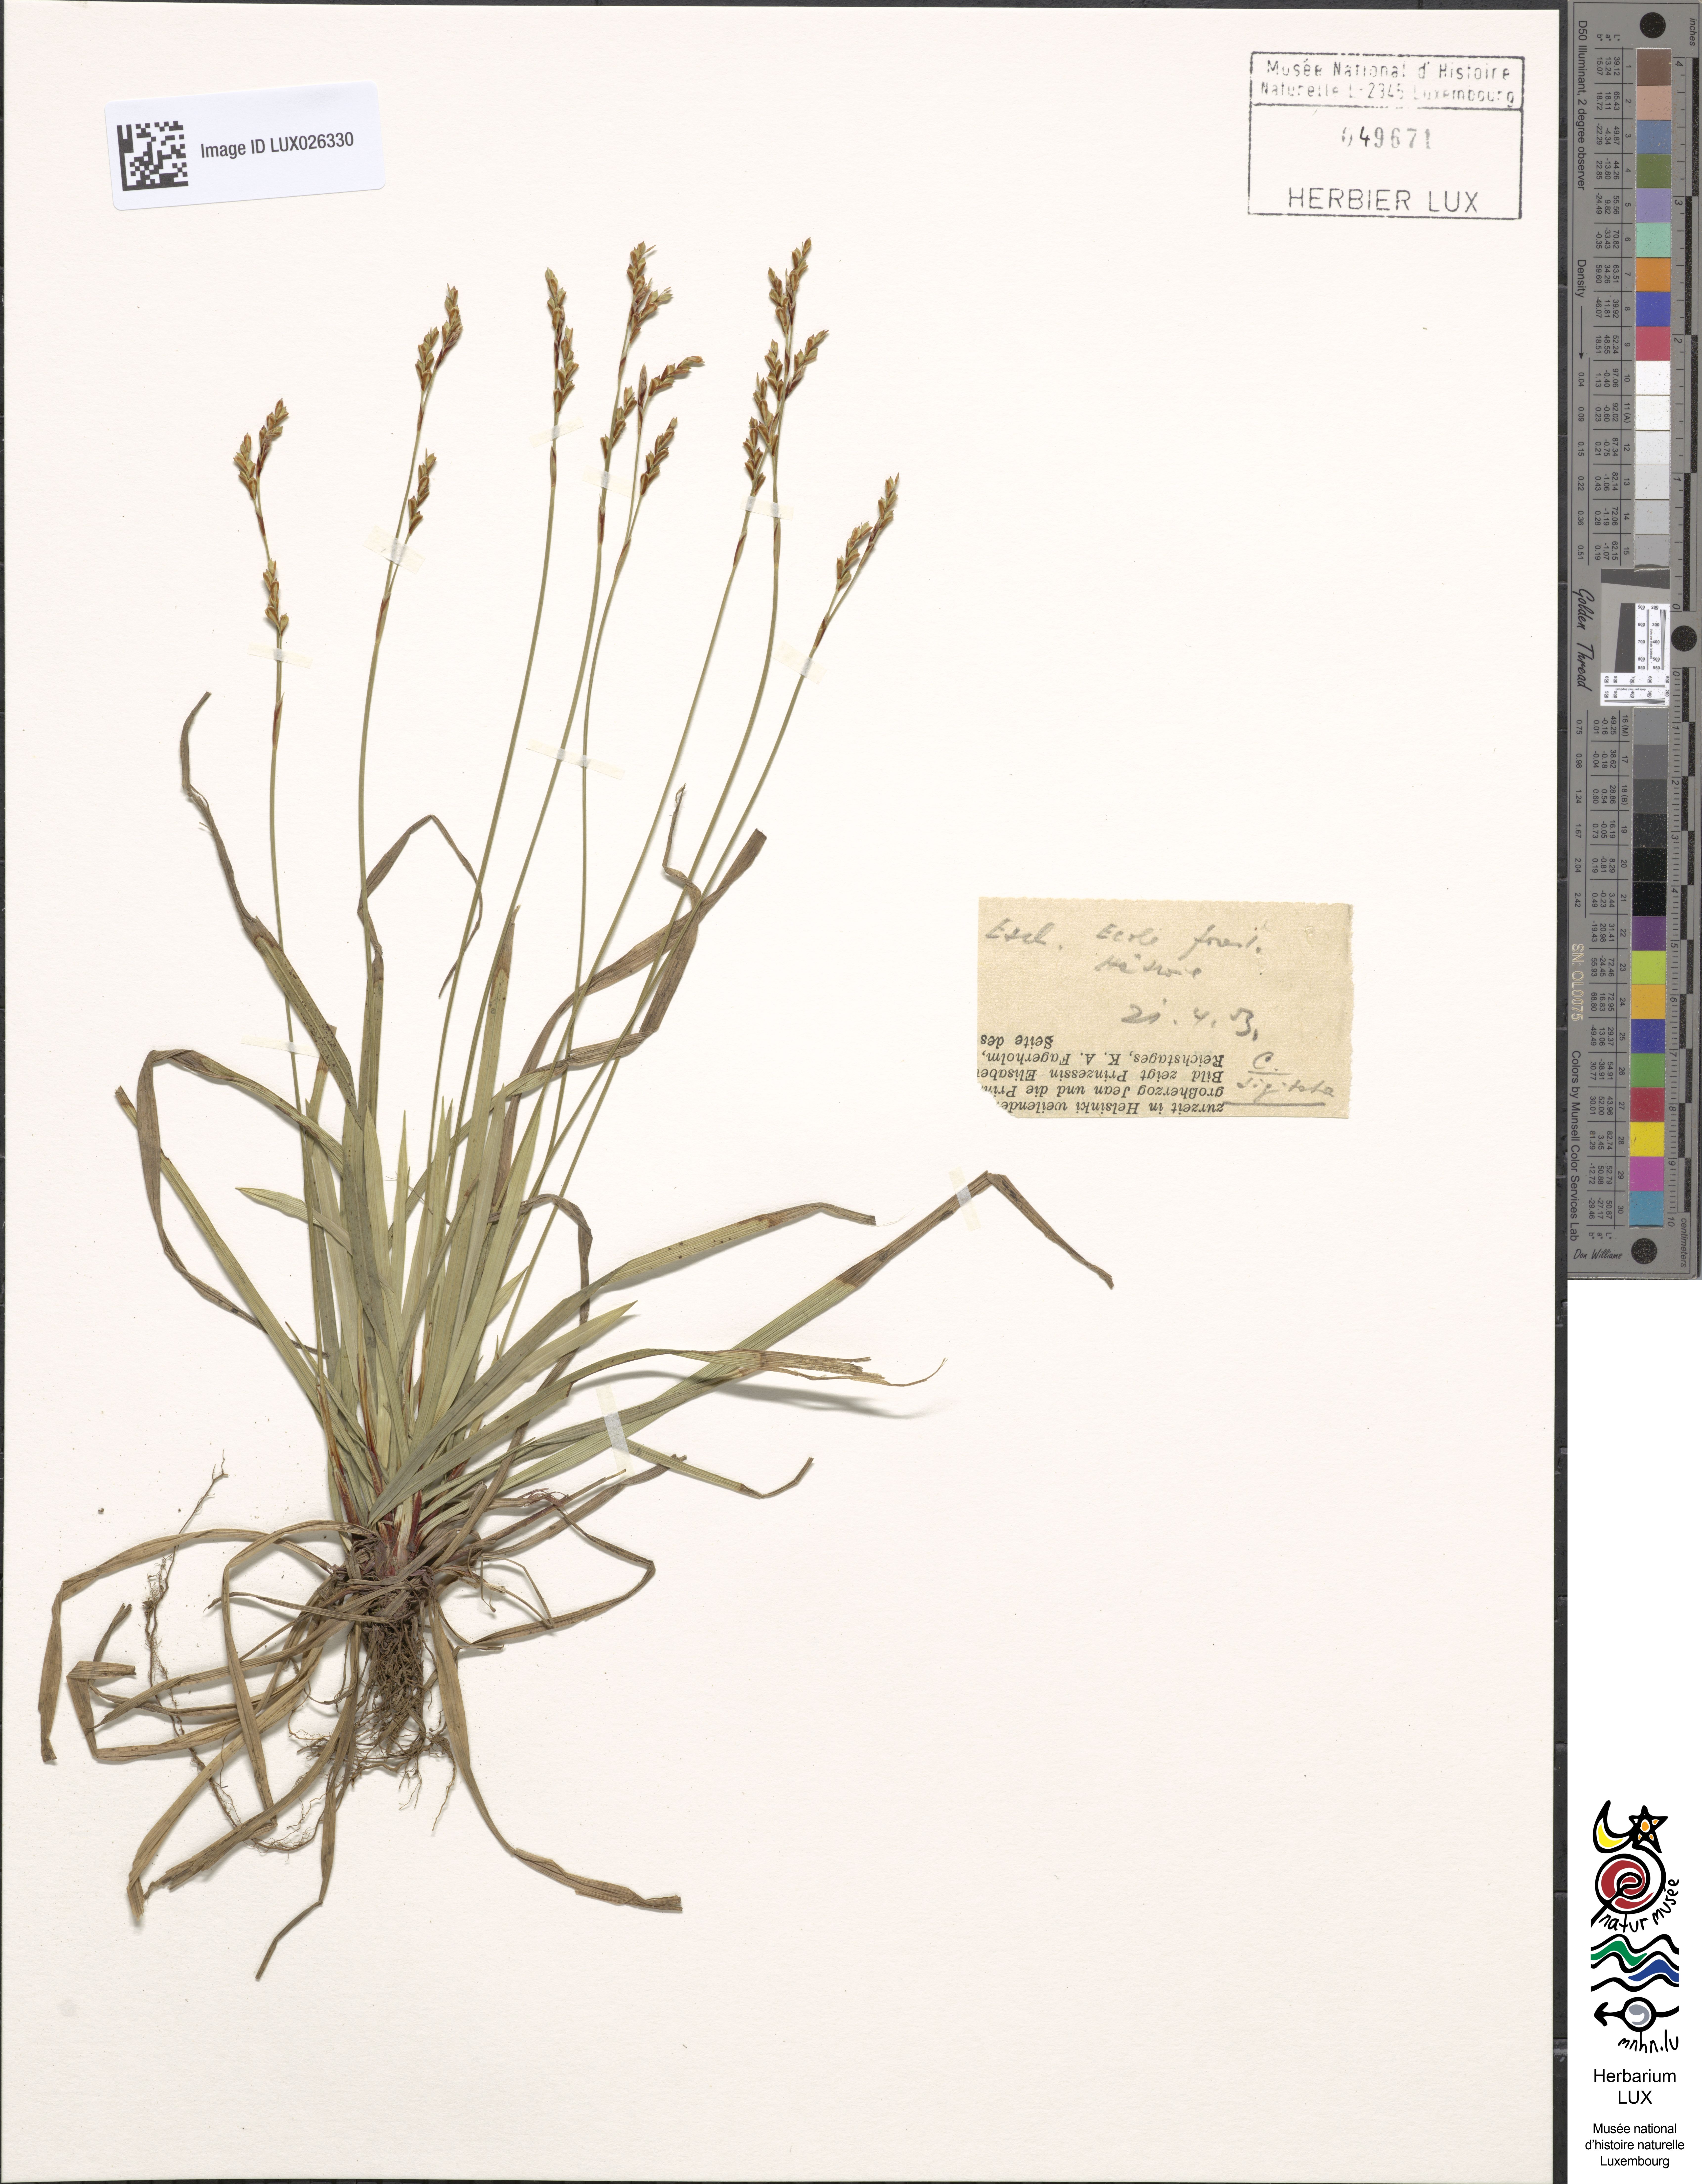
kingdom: Plantae
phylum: Tracheophyta
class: Liliopsida
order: Poales
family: Cyperaceae
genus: Carex
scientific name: Carex digitata
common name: Fingered sedge
